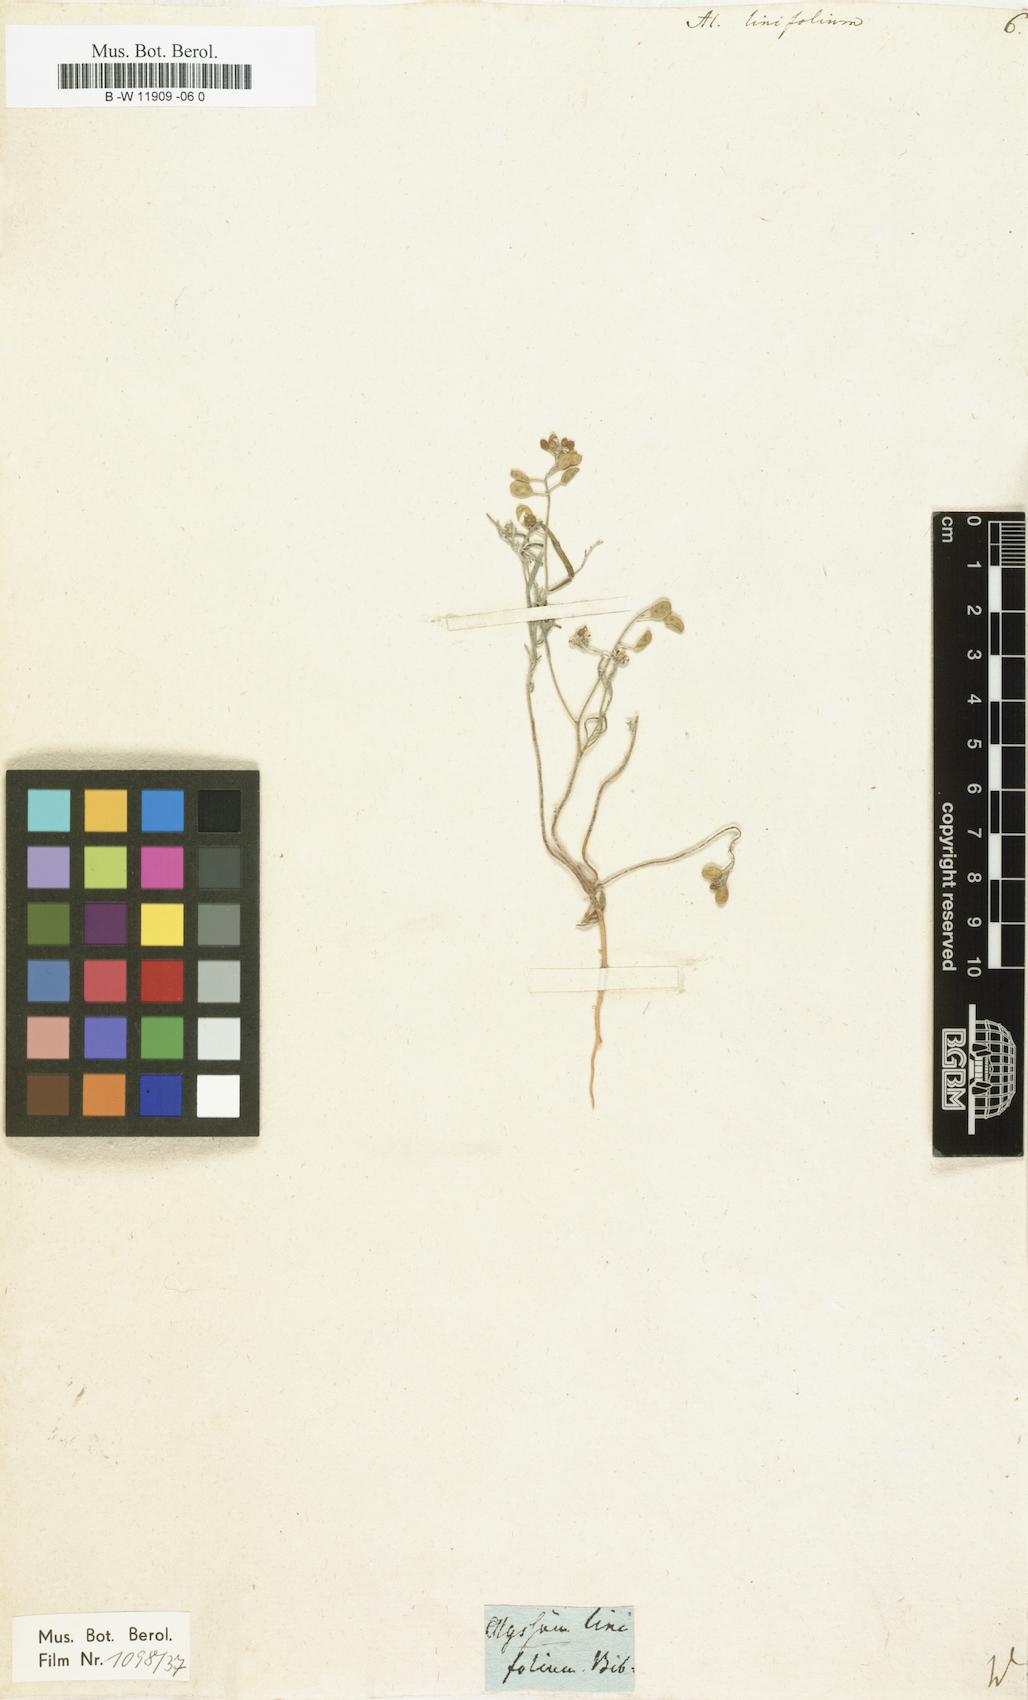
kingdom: Plantae
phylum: Tracheophyta
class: Magnoliopsida
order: Brassicales
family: Brassicaceae
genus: Meniocus
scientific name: Meniocus linifolius
